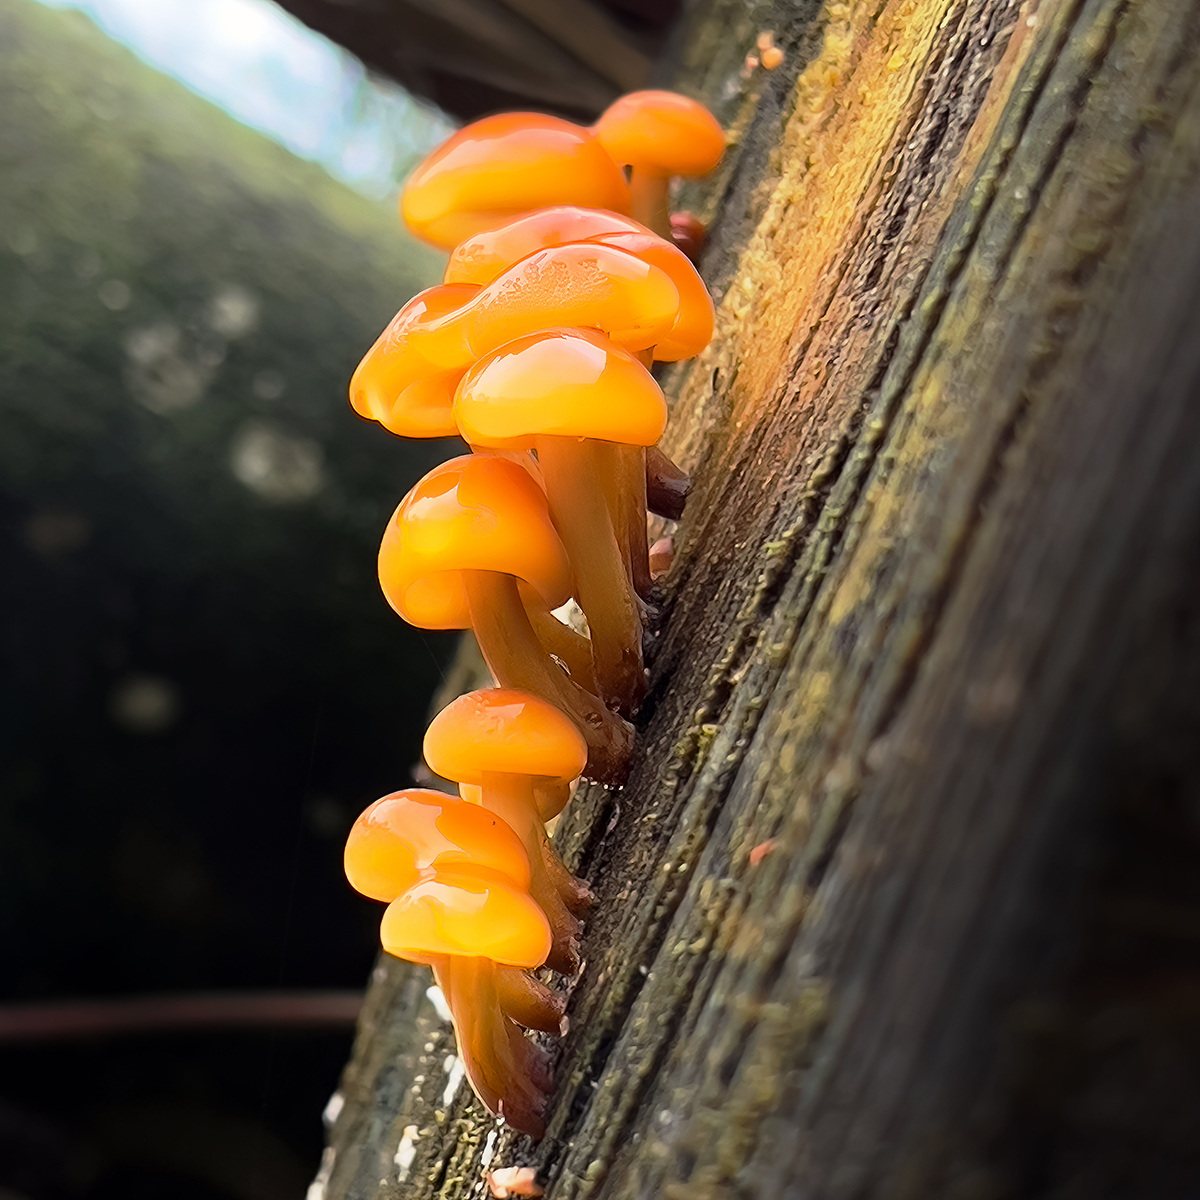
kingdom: Fungi
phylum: Basidiomycota
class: Agaricomycetes
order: Agaricales
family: Physalacriaceae
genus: Flammulina
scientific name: Flammulina
